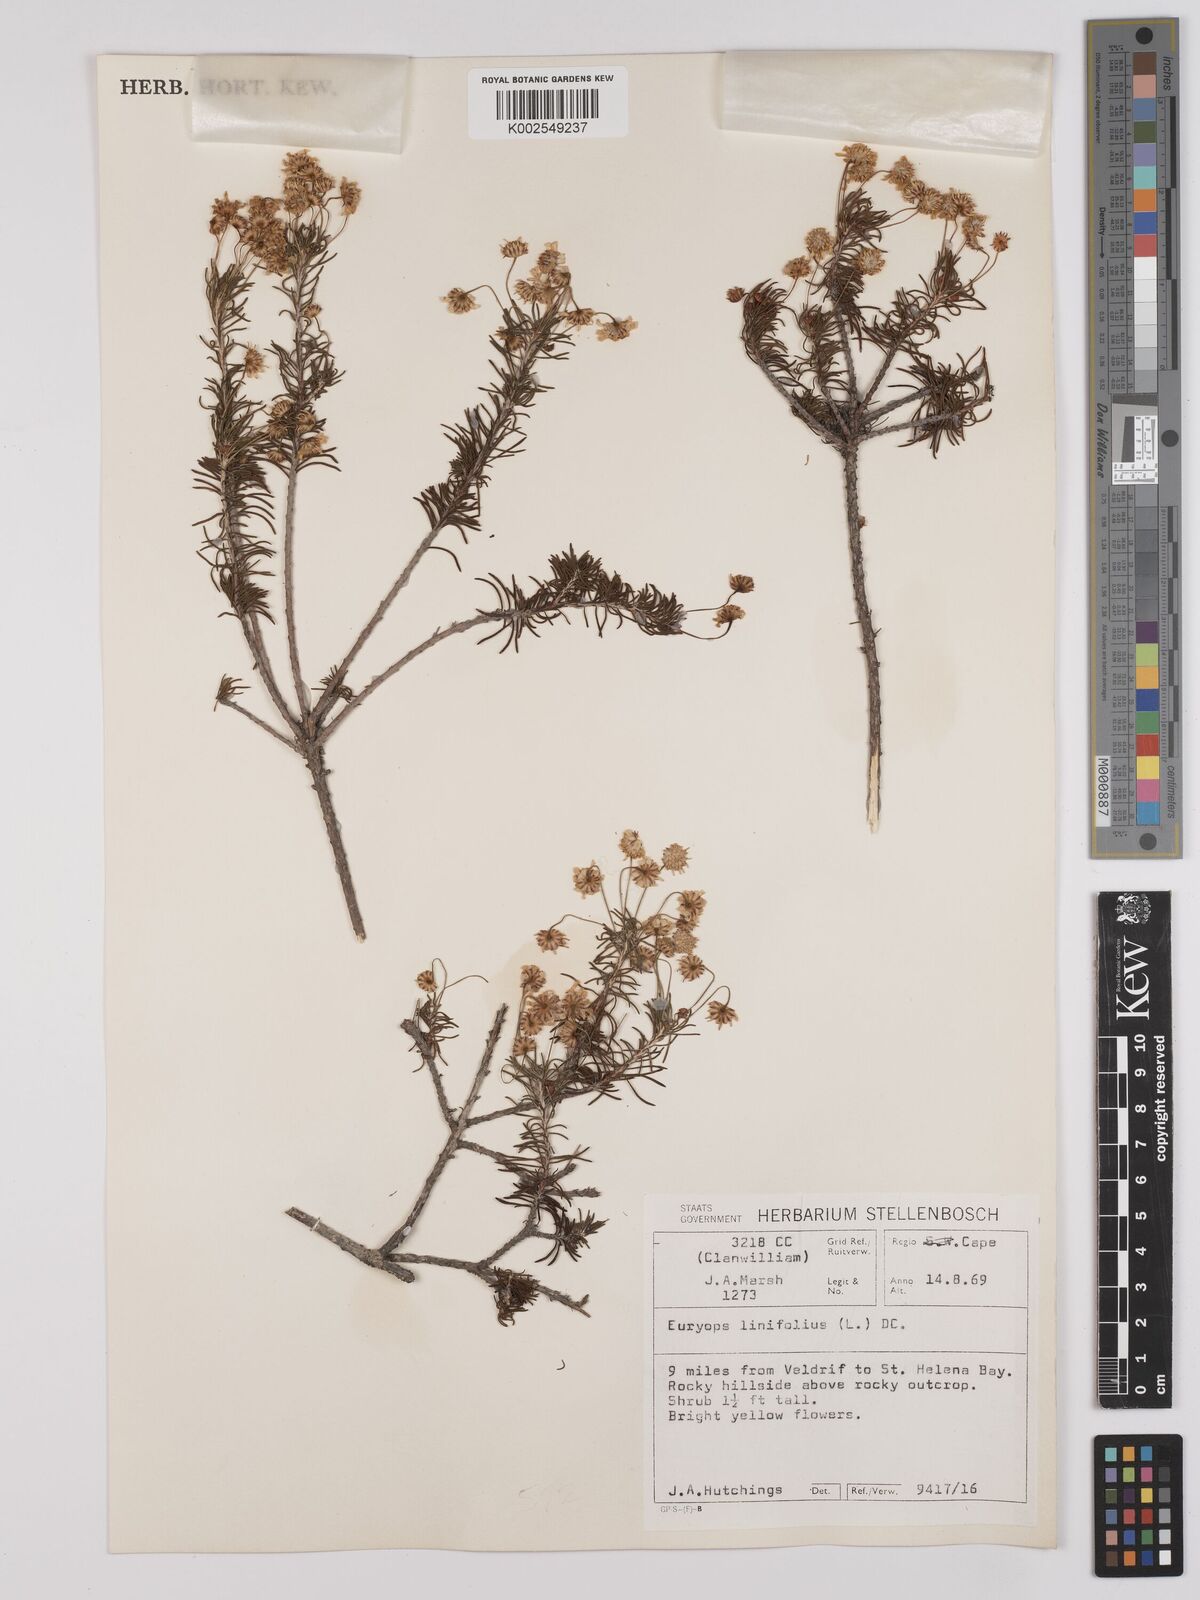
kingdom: Plantae
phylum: Tracheophyta
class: Magnoliopsida
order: Asterales
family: Asteraceae
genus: Euryops
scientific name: Euryops linifolius
